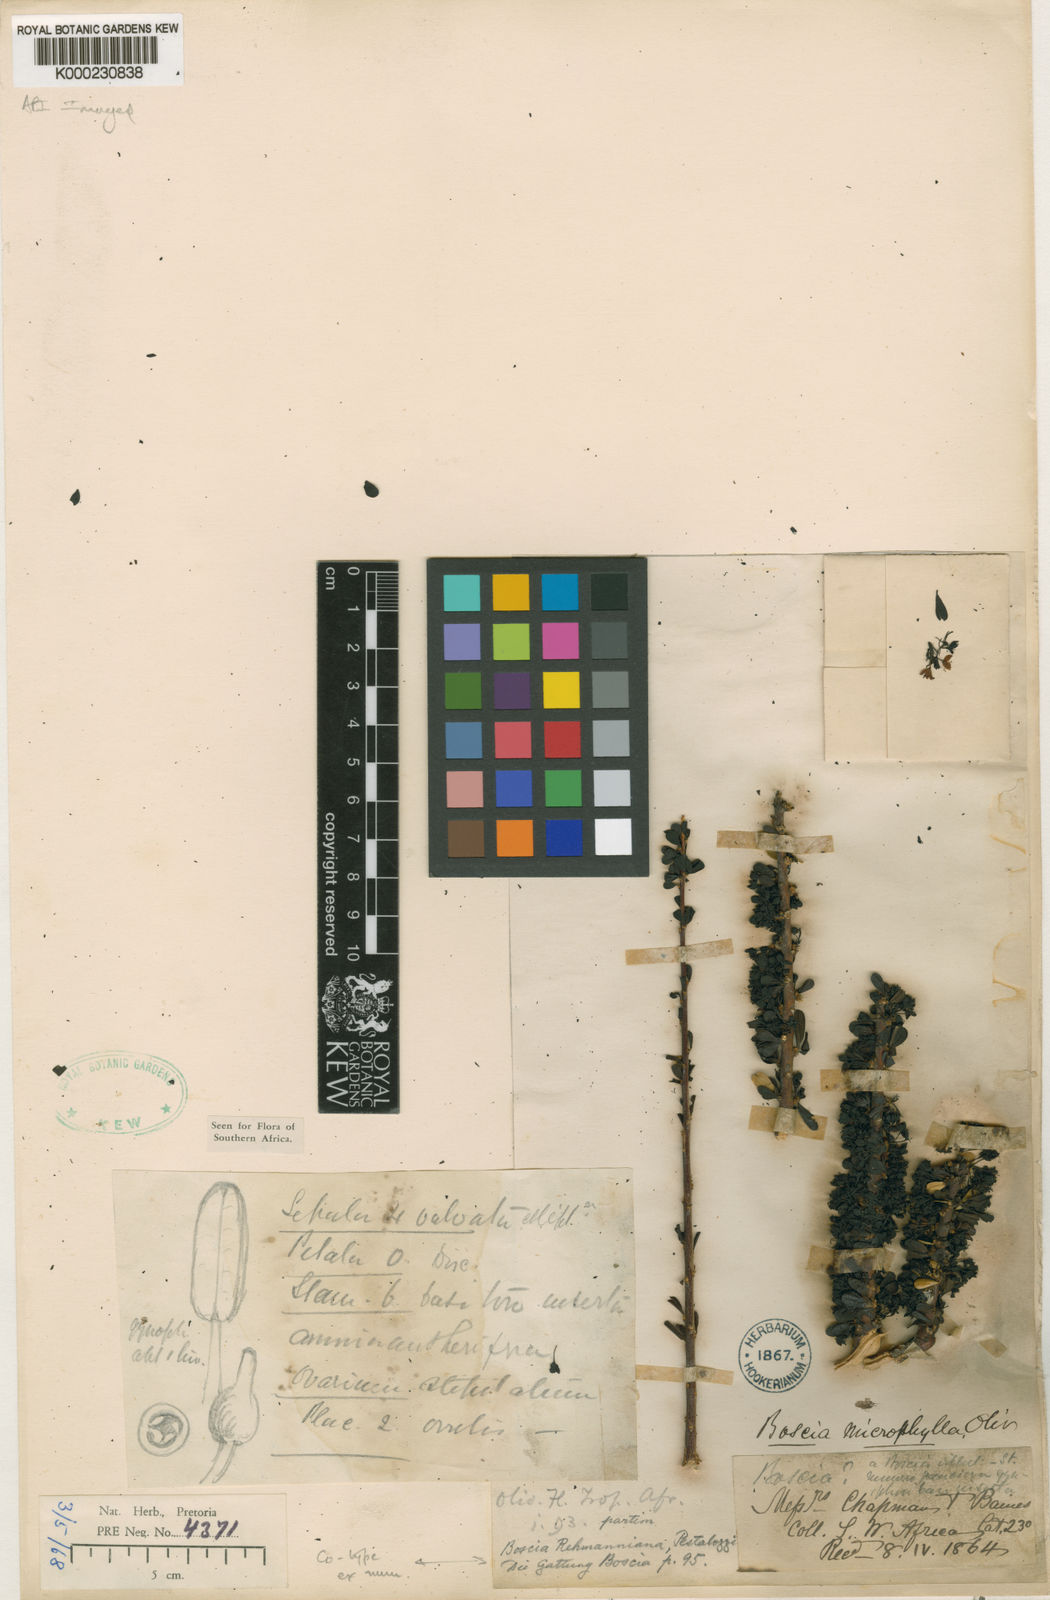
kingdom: Plantae
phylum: Tracheophyta
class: Magnoliopsida
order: Brassicales
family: Capparaceae
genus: Boscia
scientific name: Boscia microphylla
